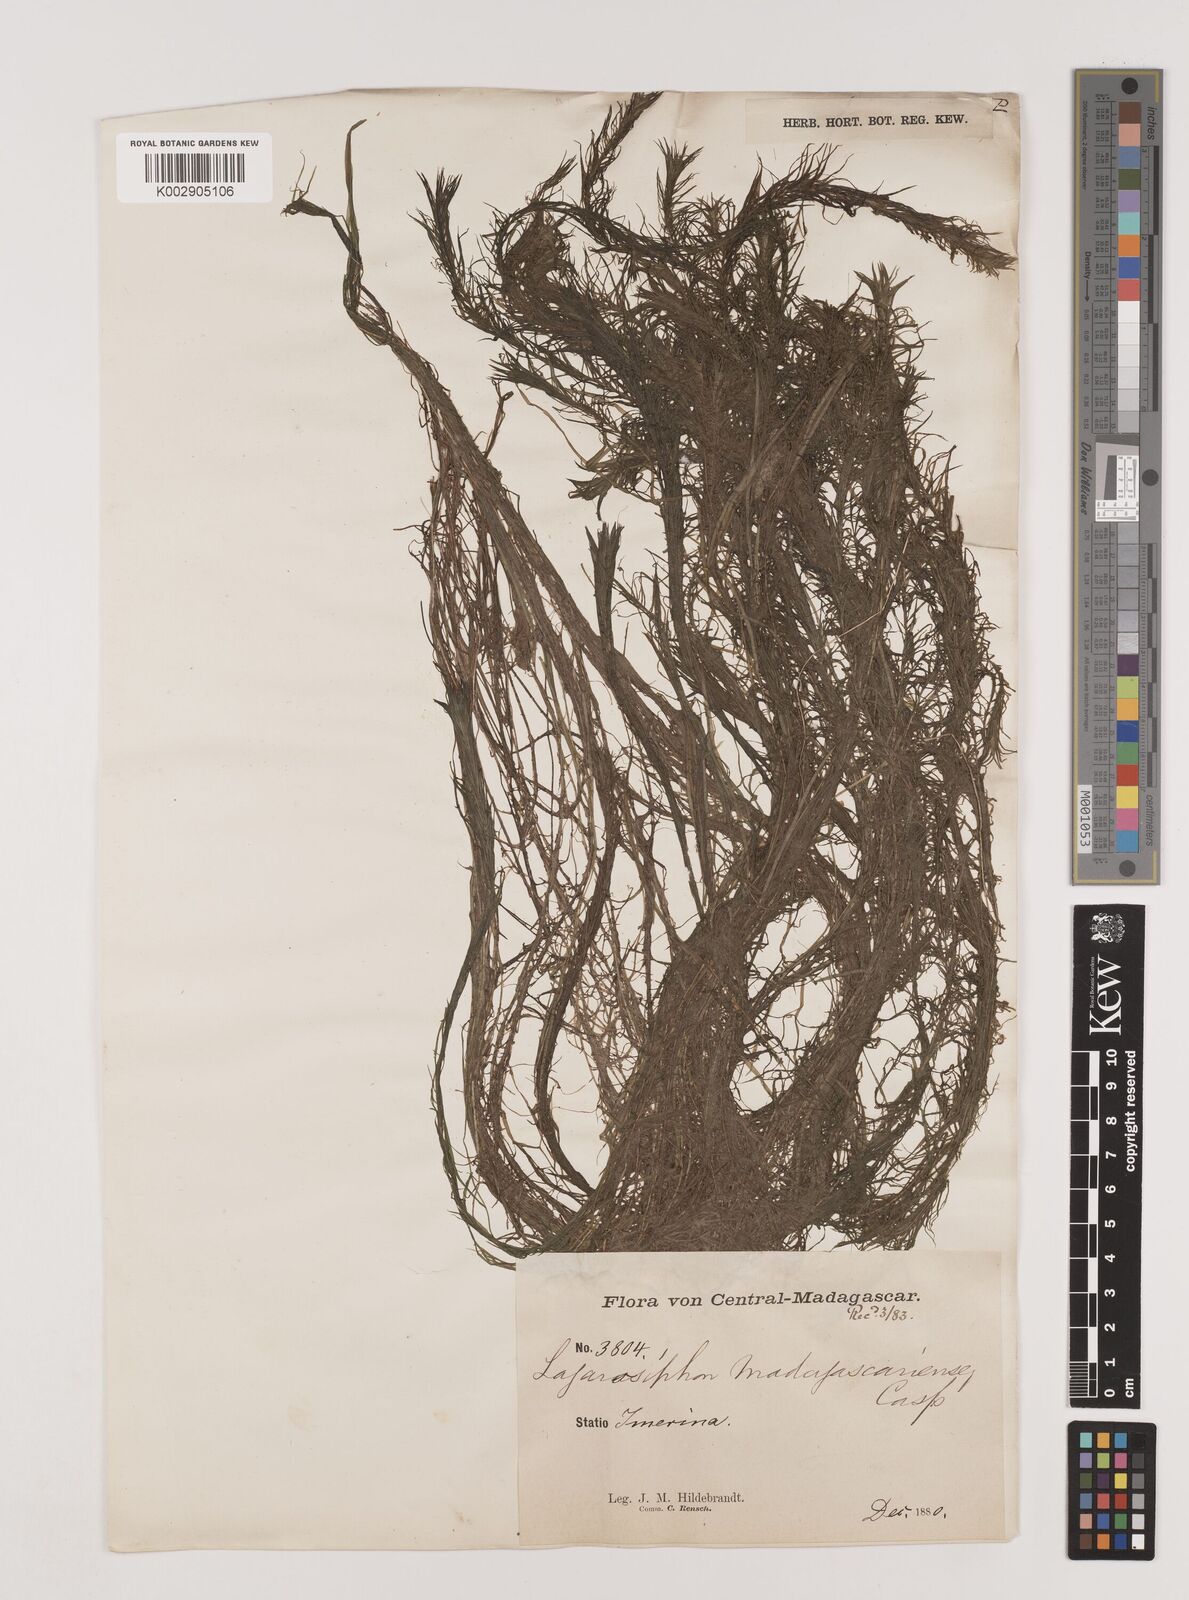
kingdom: Plantae
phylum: Tracheophyta
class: Liliopsida
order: Alismatales
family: Hydrocharitaceae
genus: Lagarosiphon
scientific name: Lagarosiphon madagascariensis
